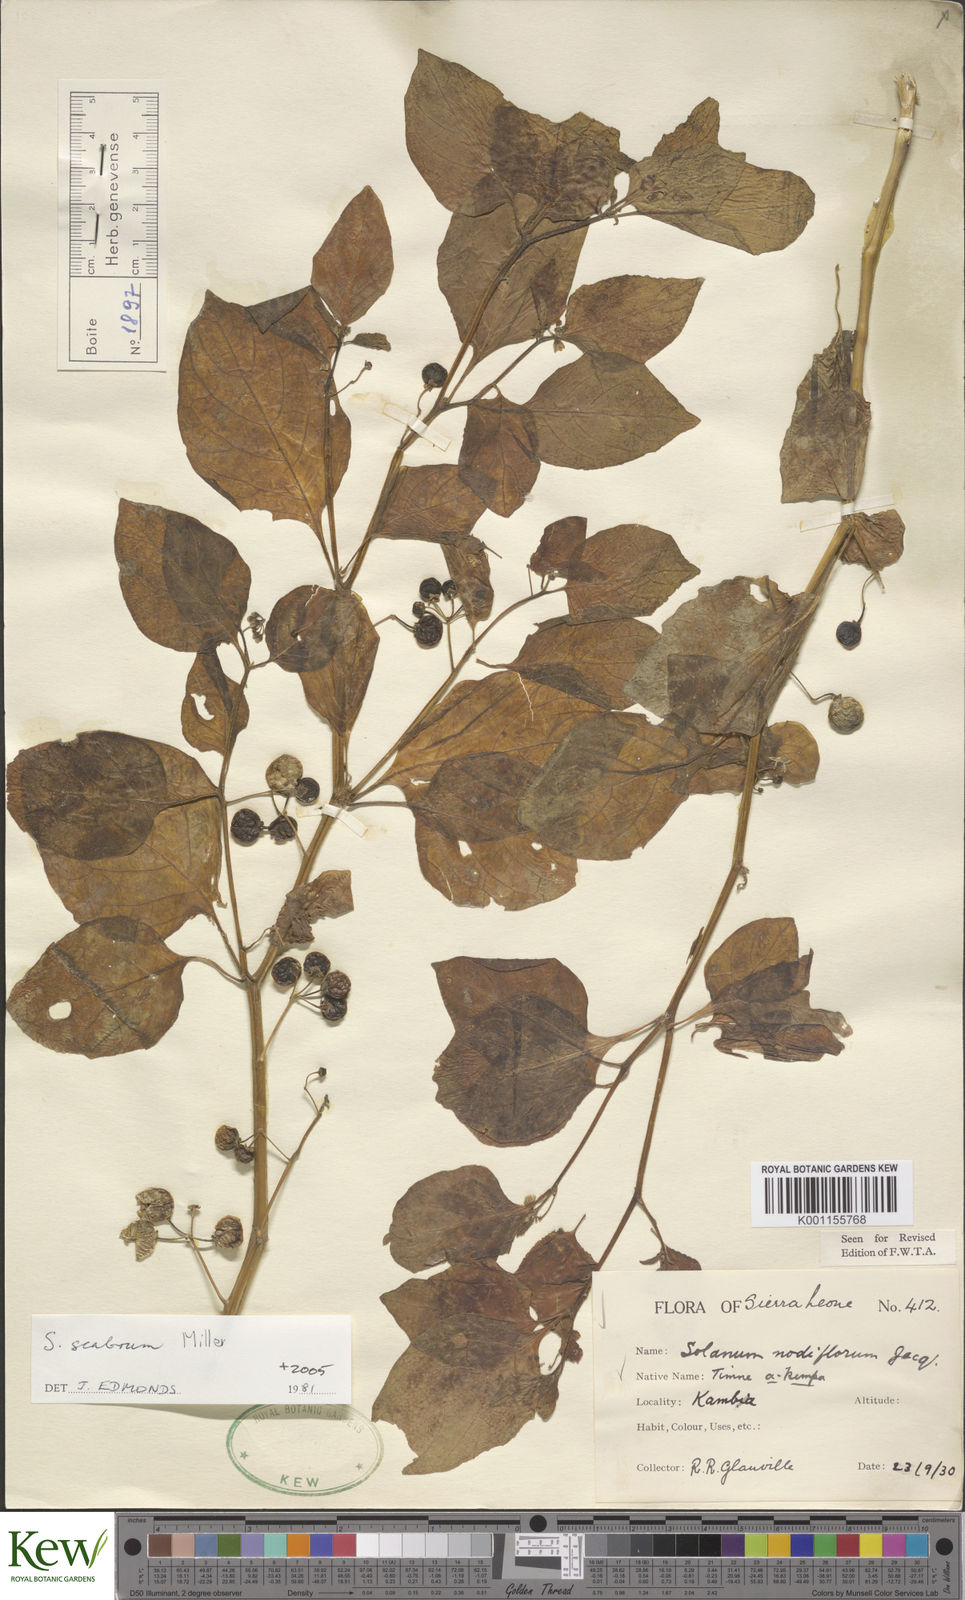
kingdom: Plantae
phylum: Tracheophyta
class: Magnoliopsida
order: Solanales
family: Solanaceae
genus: Solanum
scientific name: Solanum scabrum
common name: Garden-huckleberry
